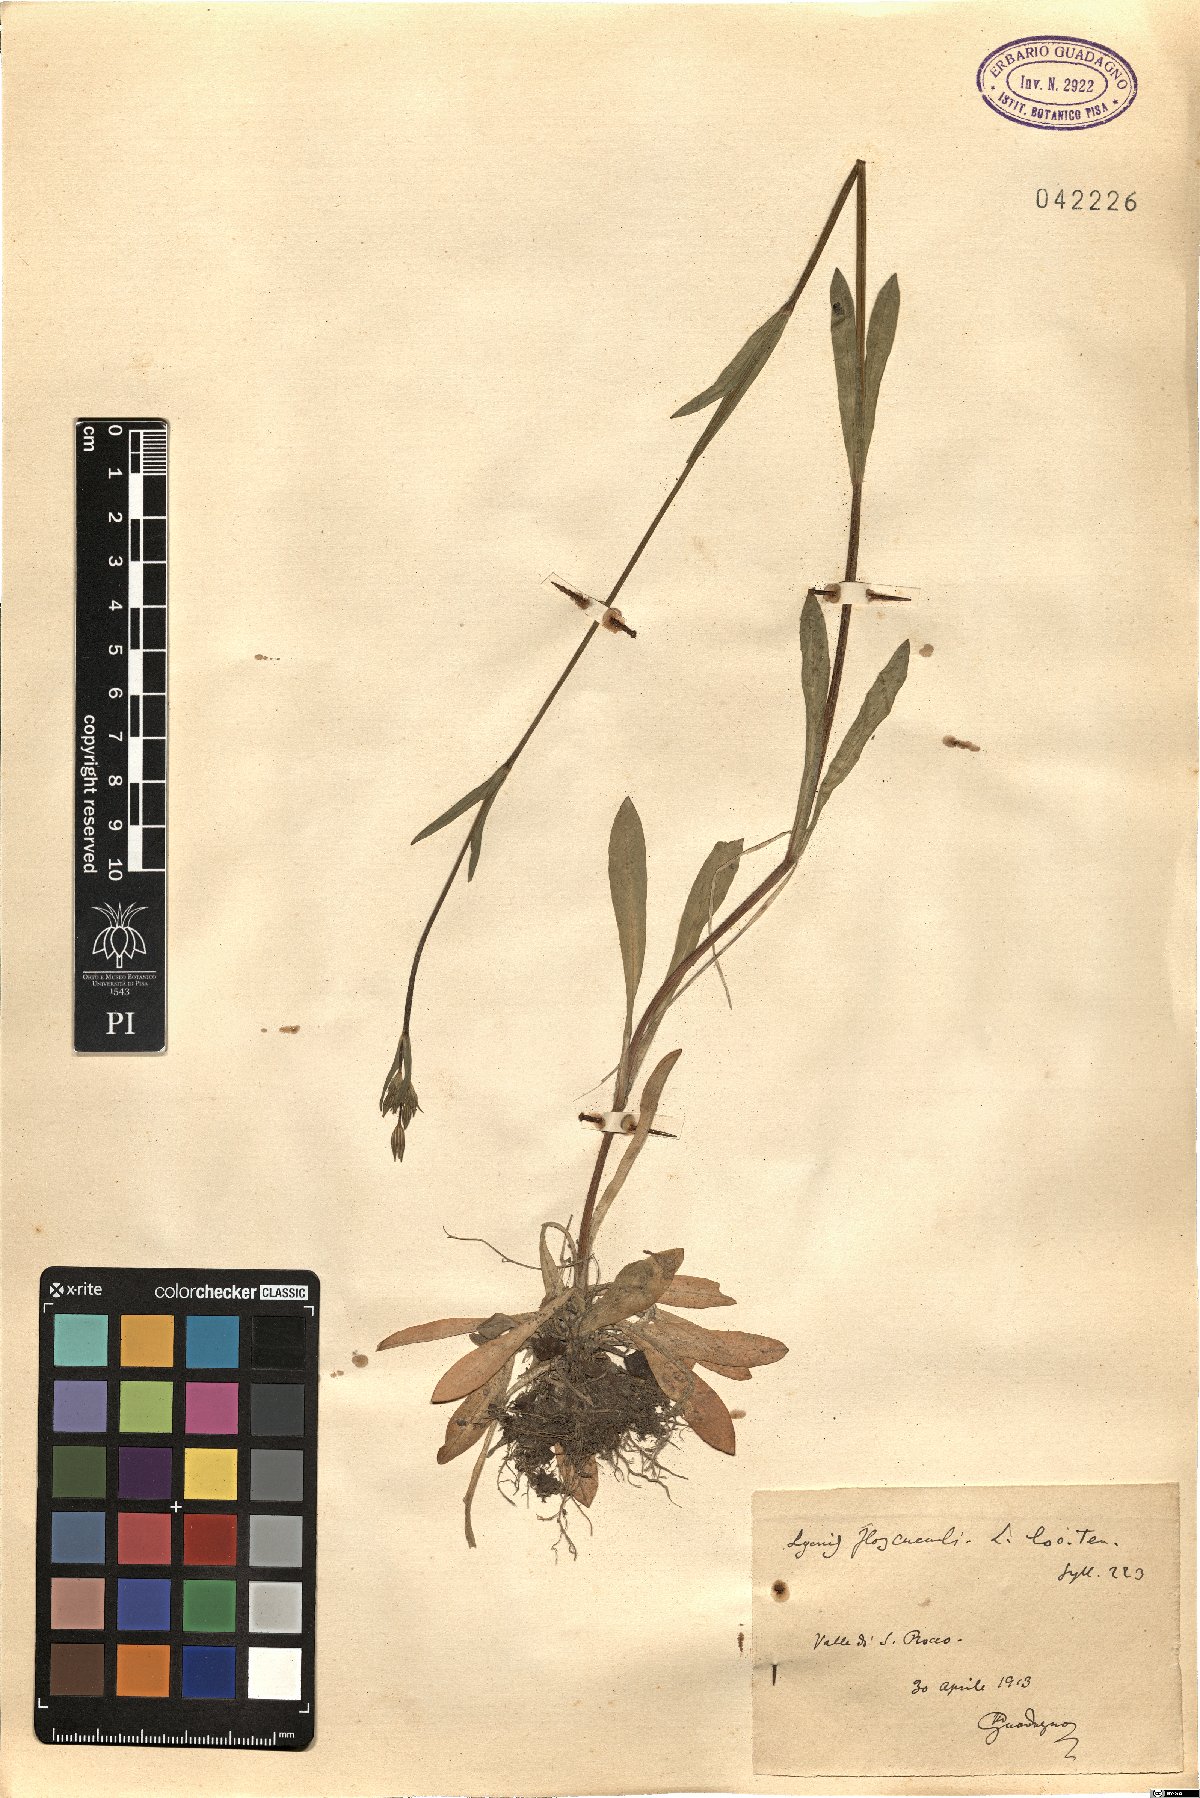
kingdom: Plantae
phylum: Tracheophyta
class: Magnoliopsida
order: Caryophyllales
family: Caryophyllaceae
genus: Silene
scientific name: Silene flos-cuculi
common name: Ragged-robin
